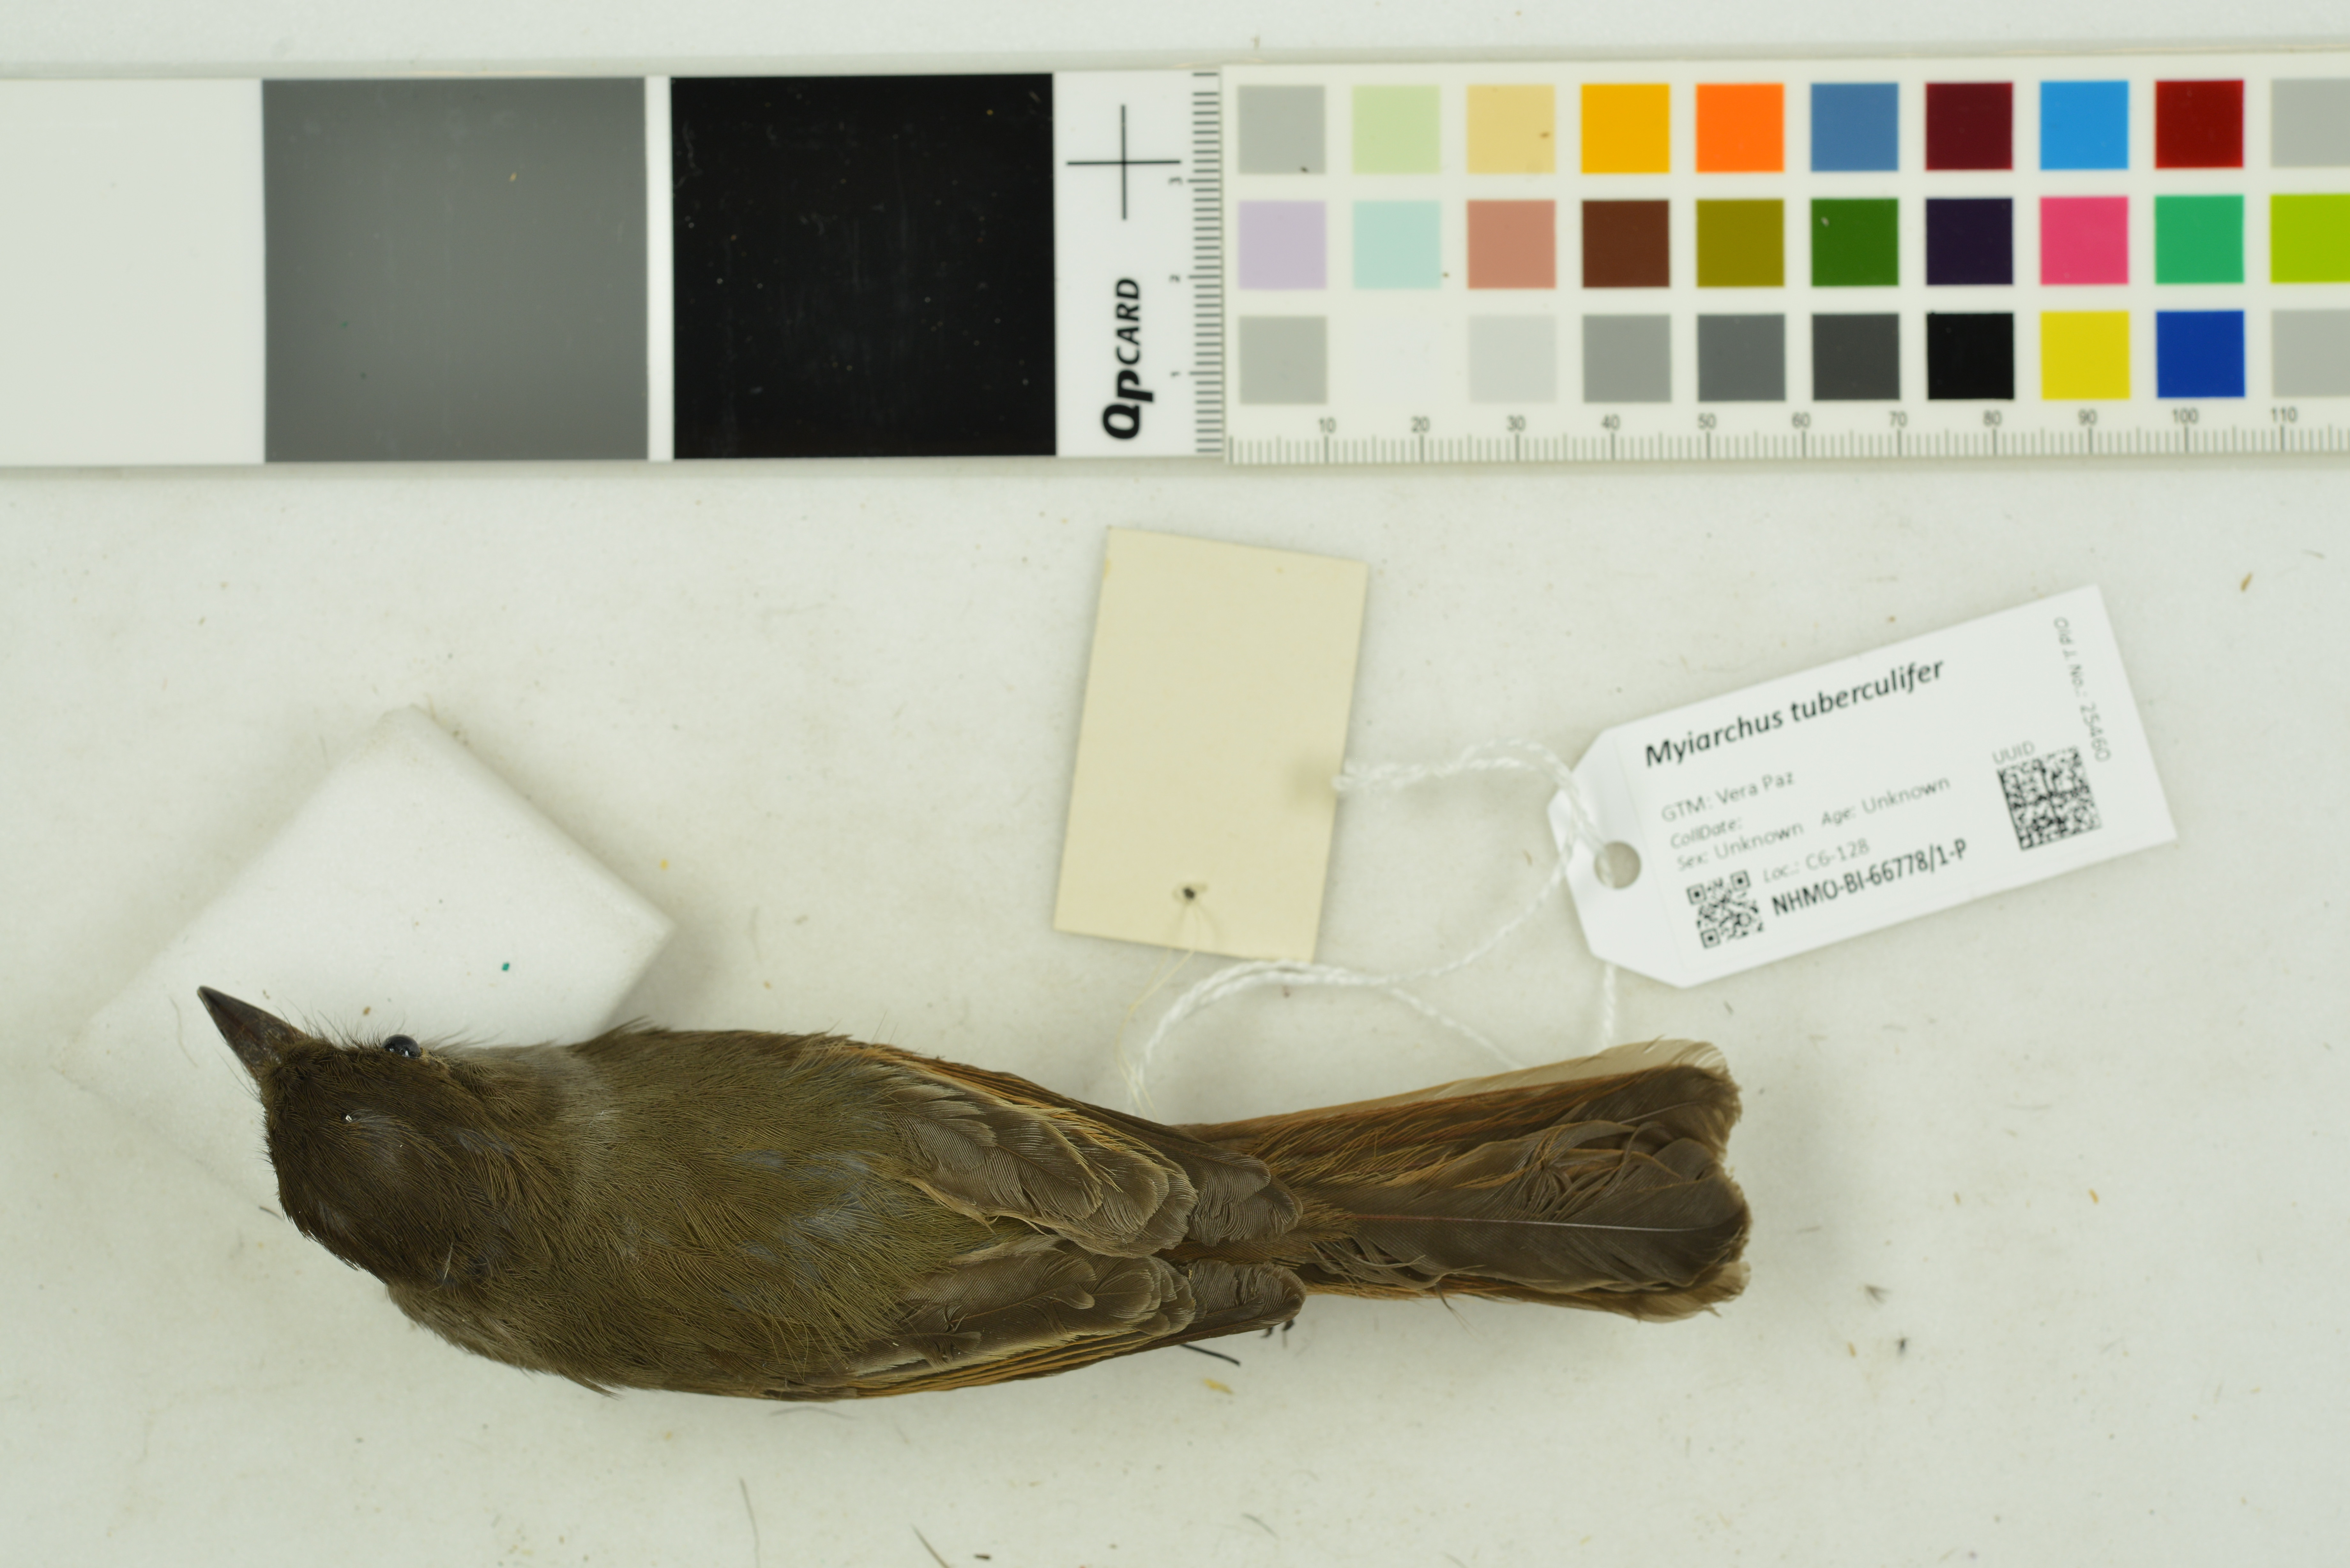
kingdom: Animalia
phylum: Chordata
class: Aves
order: Passeriformes
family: Tyrannidae
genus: Myiarchus
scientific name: Myiarchus tuberculifer
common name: Dusky-capped flycatcher
